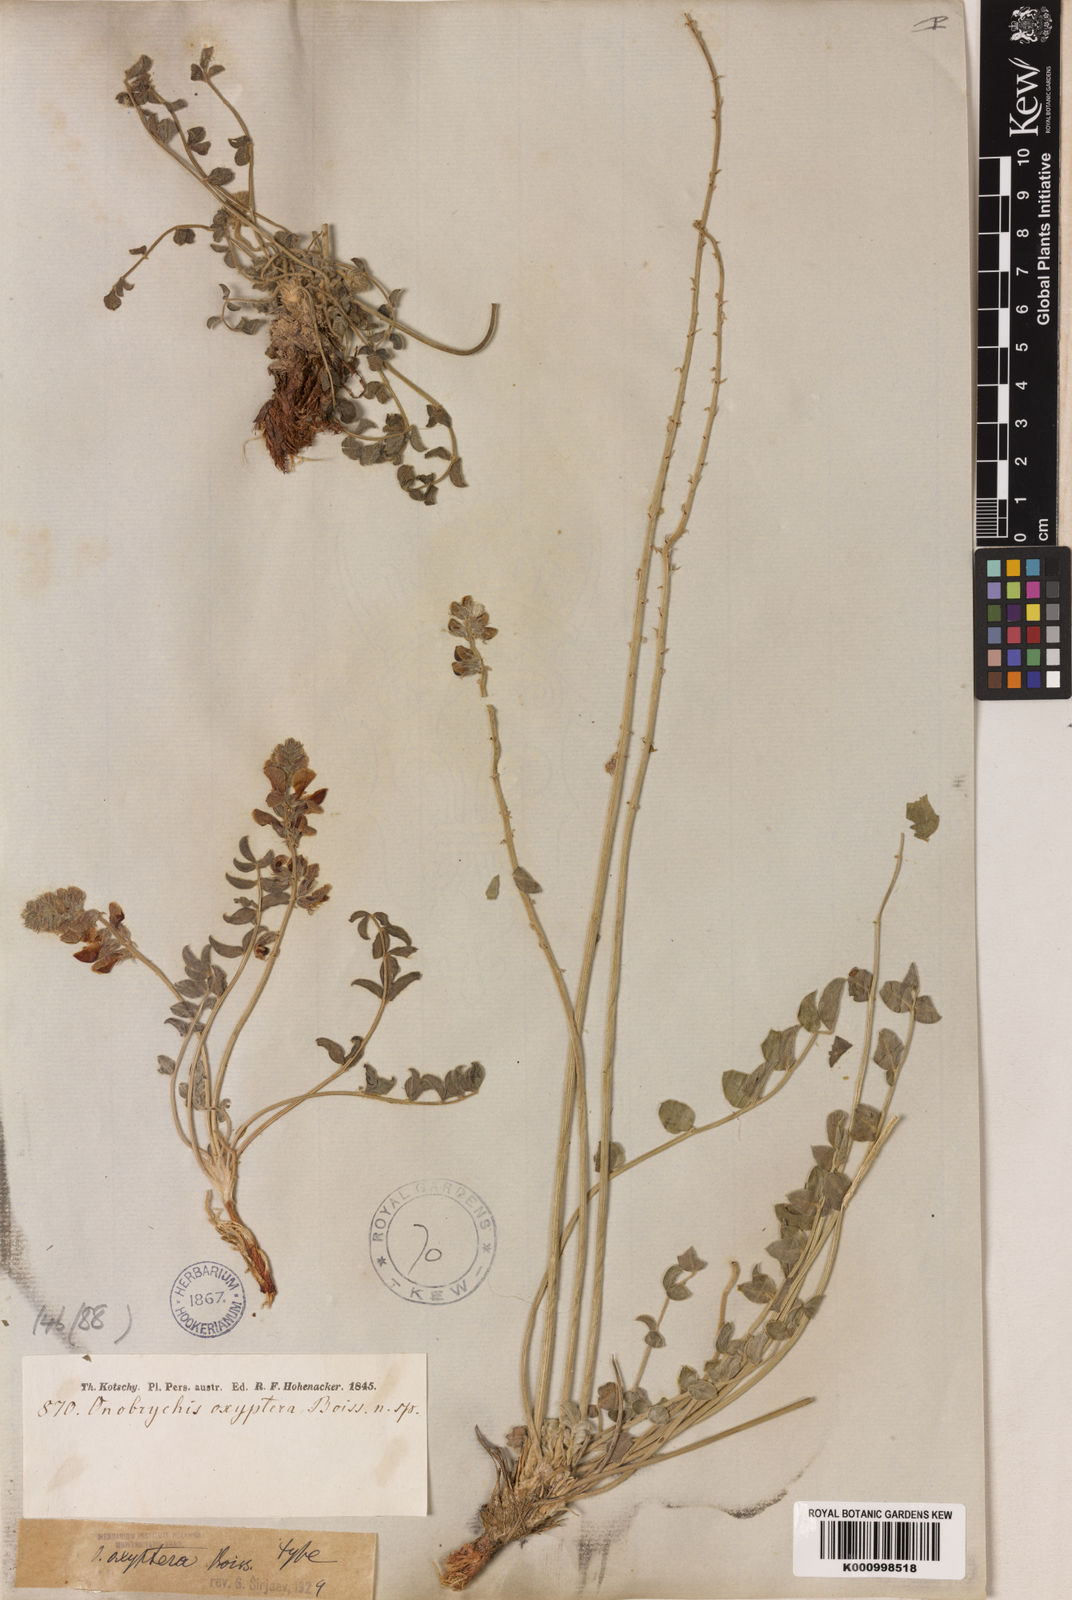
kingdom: Plantae
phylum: Tracheophyta
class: Magnoliopsida
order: Fabales
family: Fabaceae
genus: Onobrychis
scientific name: Onobrychis oxyptera
